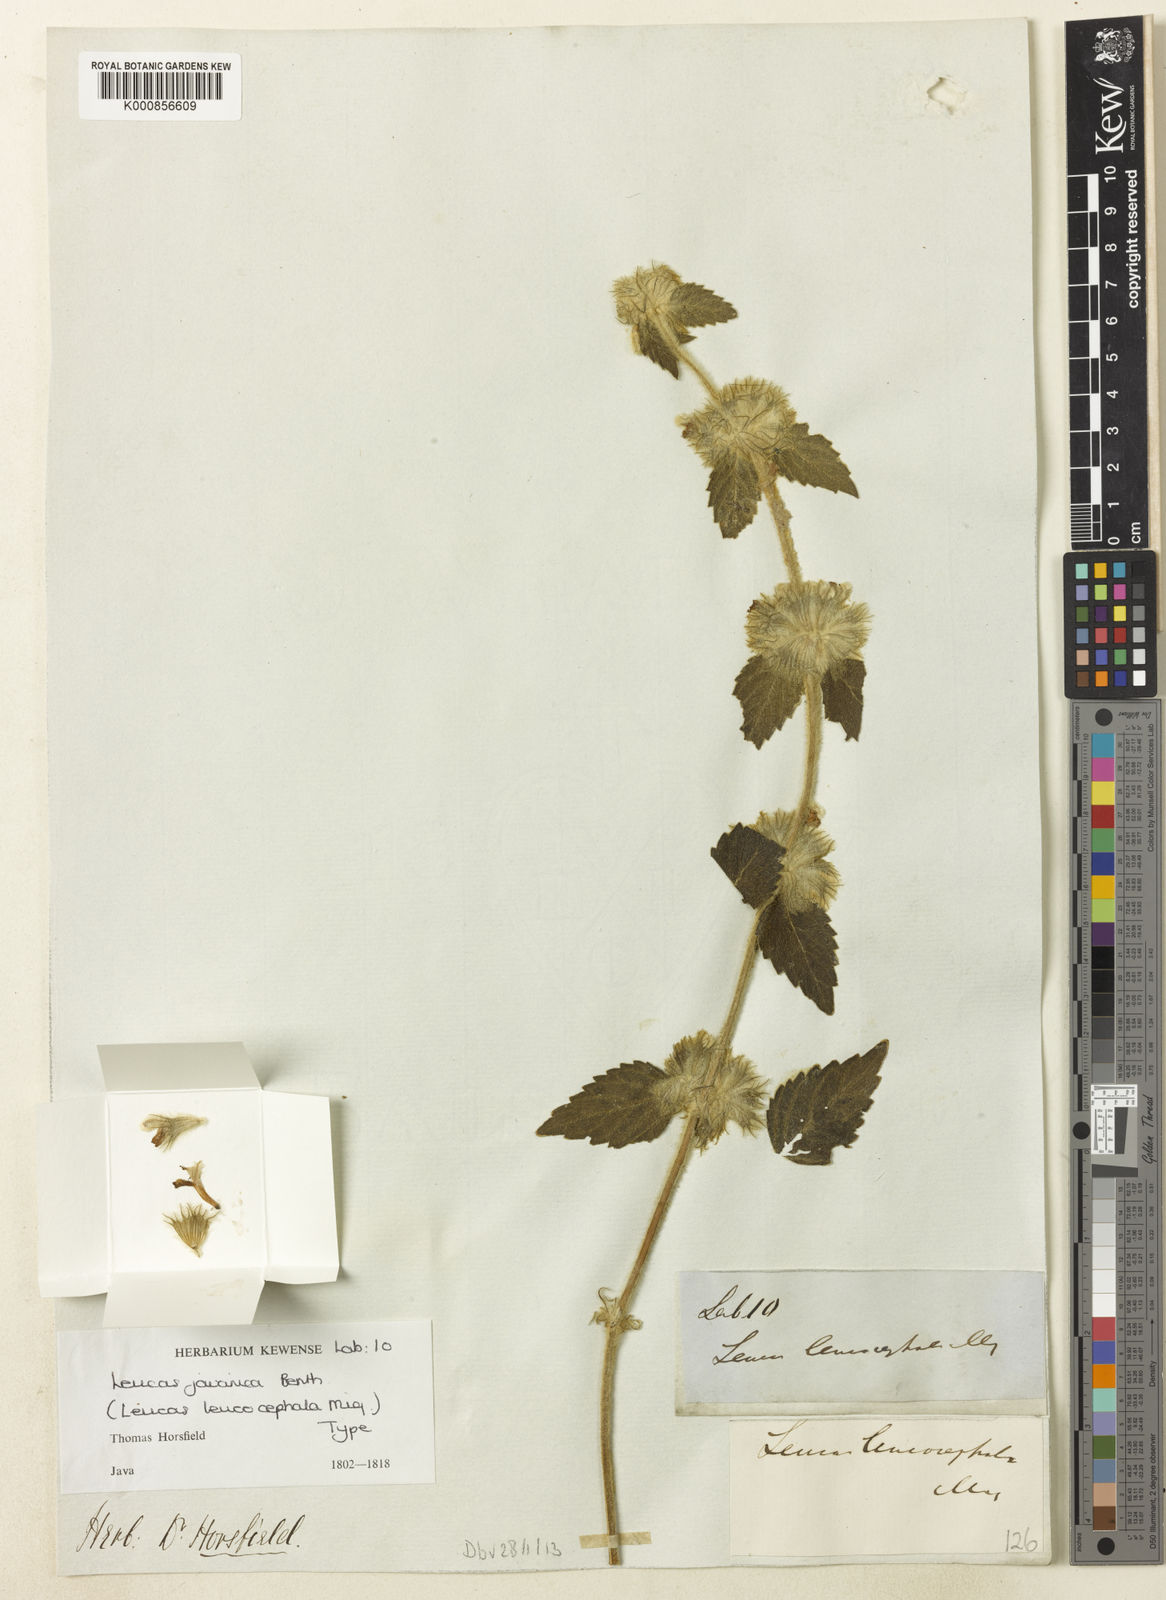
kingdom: Plantae
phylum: Tracheophyta
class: Magnoliopsida
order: Lamiales
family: Lamiaceae
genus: Leucas
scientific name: Leucas leucocephala
